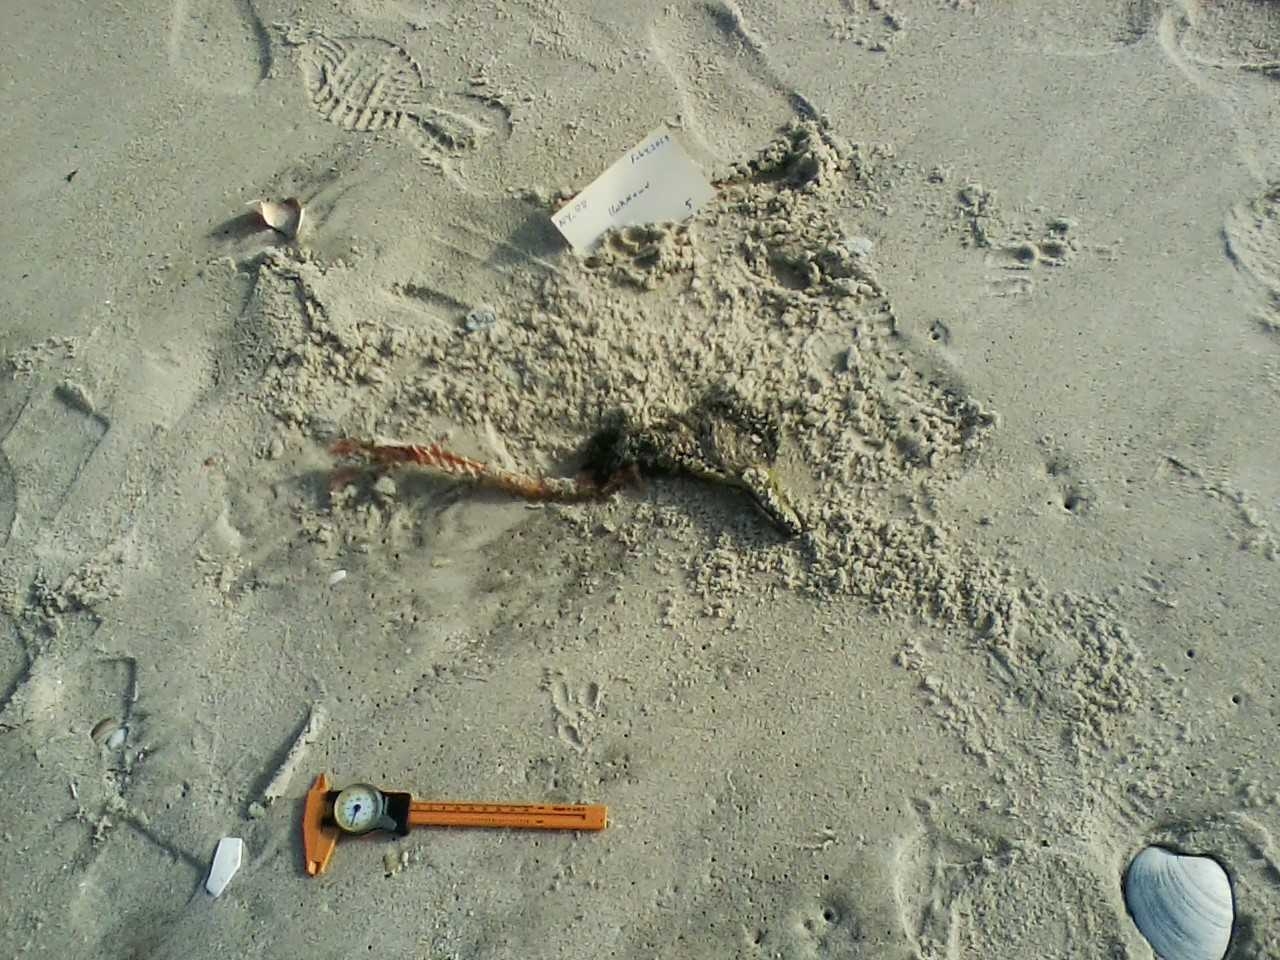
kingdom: Animalia
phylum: Chordata
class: Aves
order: Charadriiformes
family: Laridae
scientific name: Laridae
